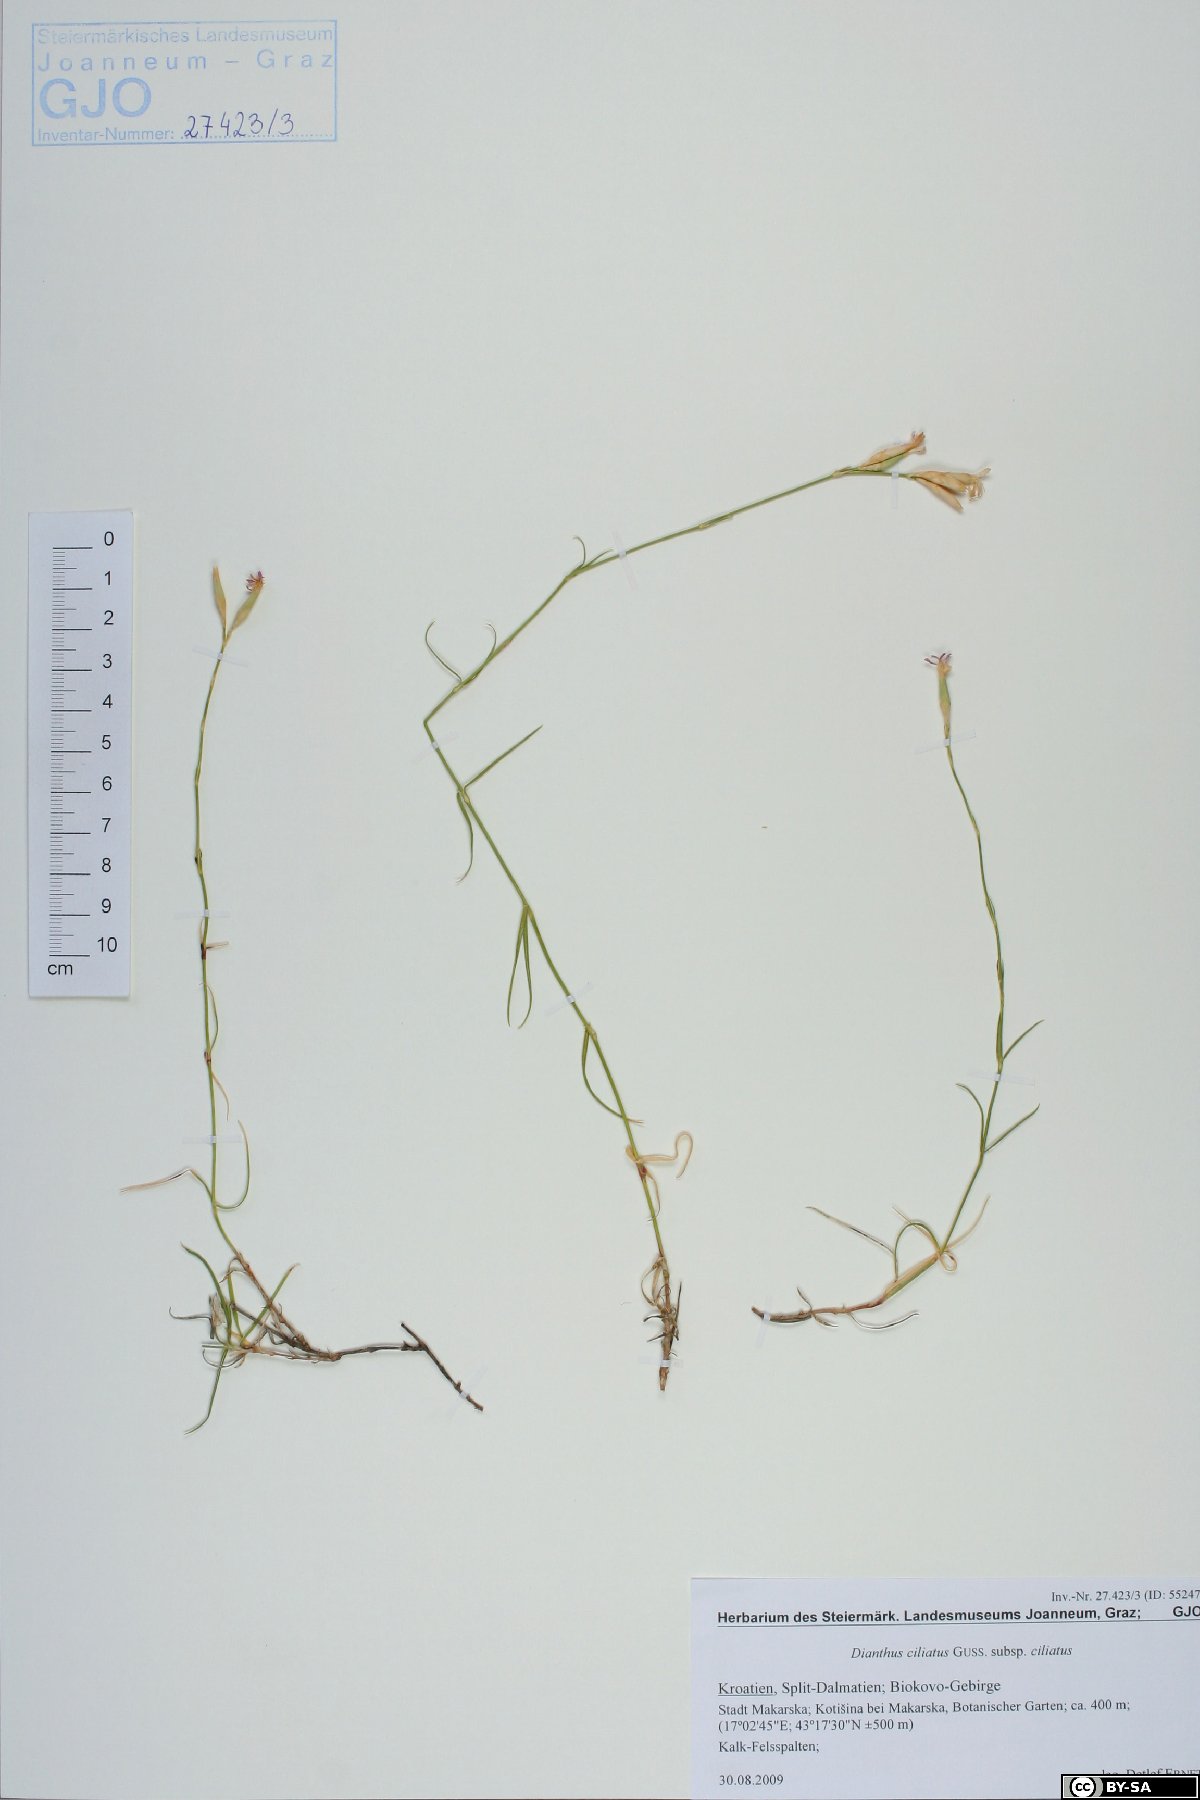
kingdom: Plantae
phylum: Tracheophyta
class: Magnoliopsida
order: Caryophyllales
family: Caryophyllaceae
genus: Dianthus
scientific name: Dianthus ciliatus
